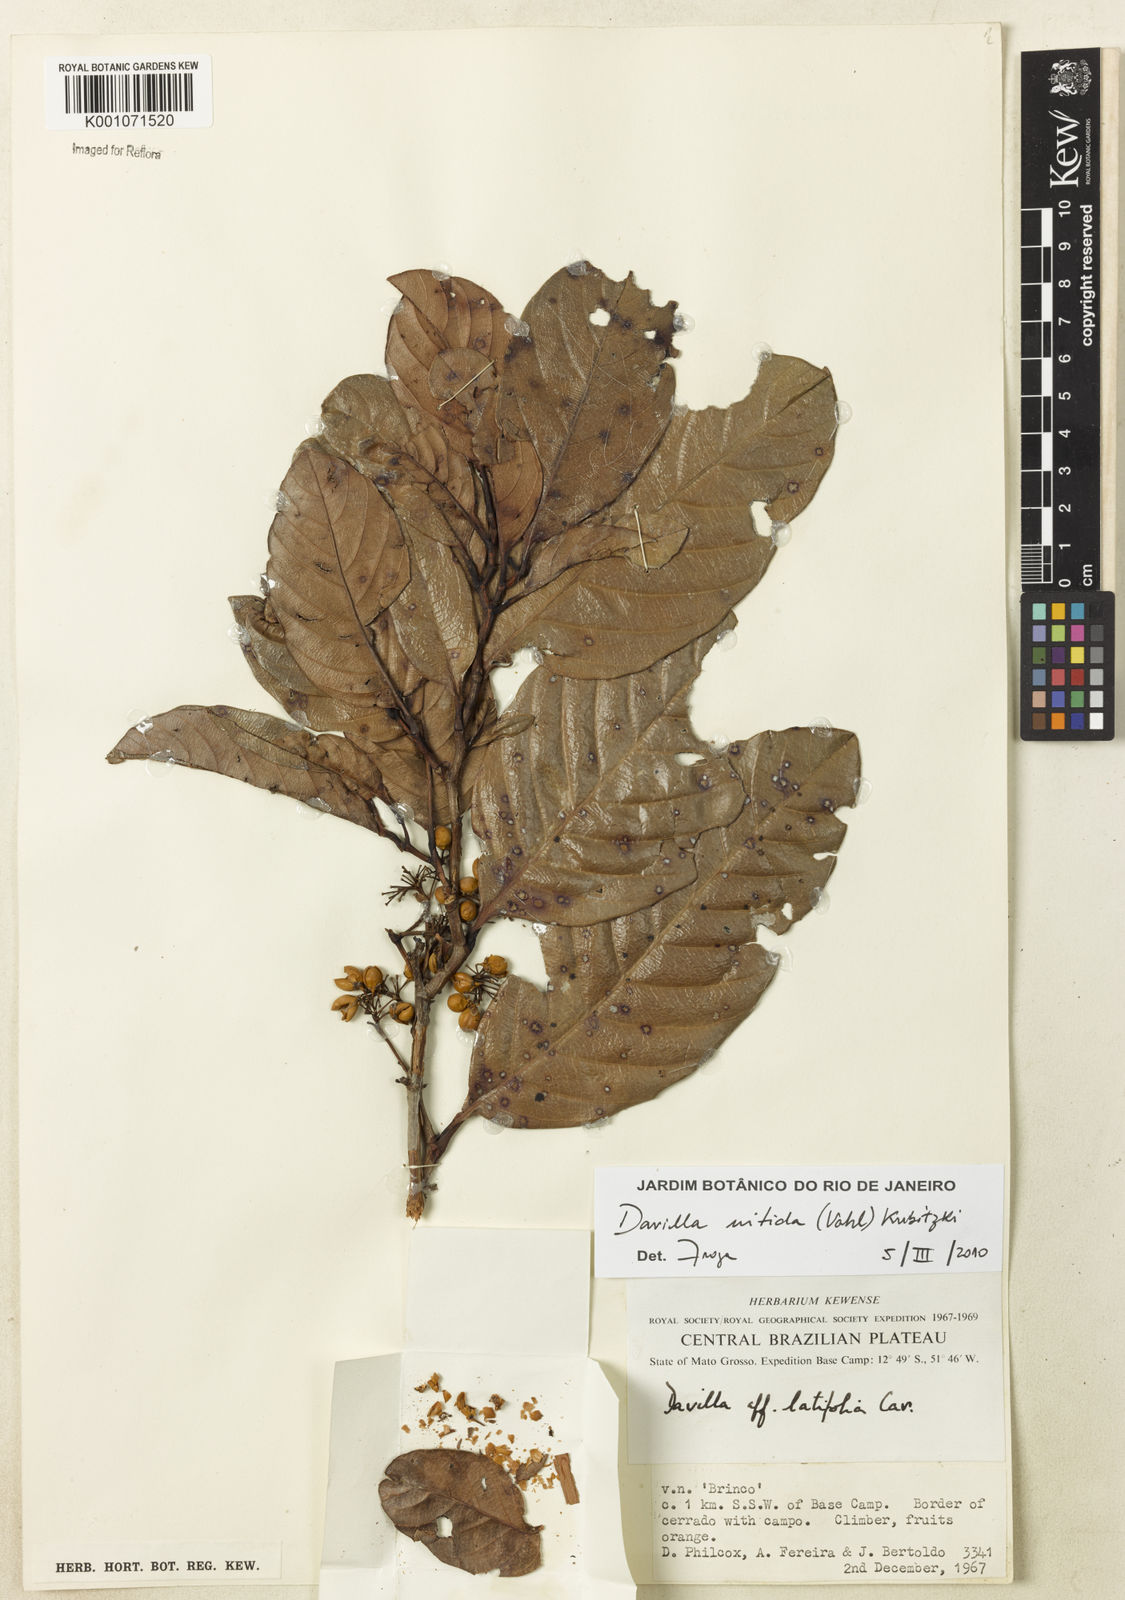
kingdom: Plantae
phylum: Tracheophyta
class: Magnoliopsida
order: Dilleniales
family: Dilleniaceae
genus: Davilla
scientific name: Davilla nitida
